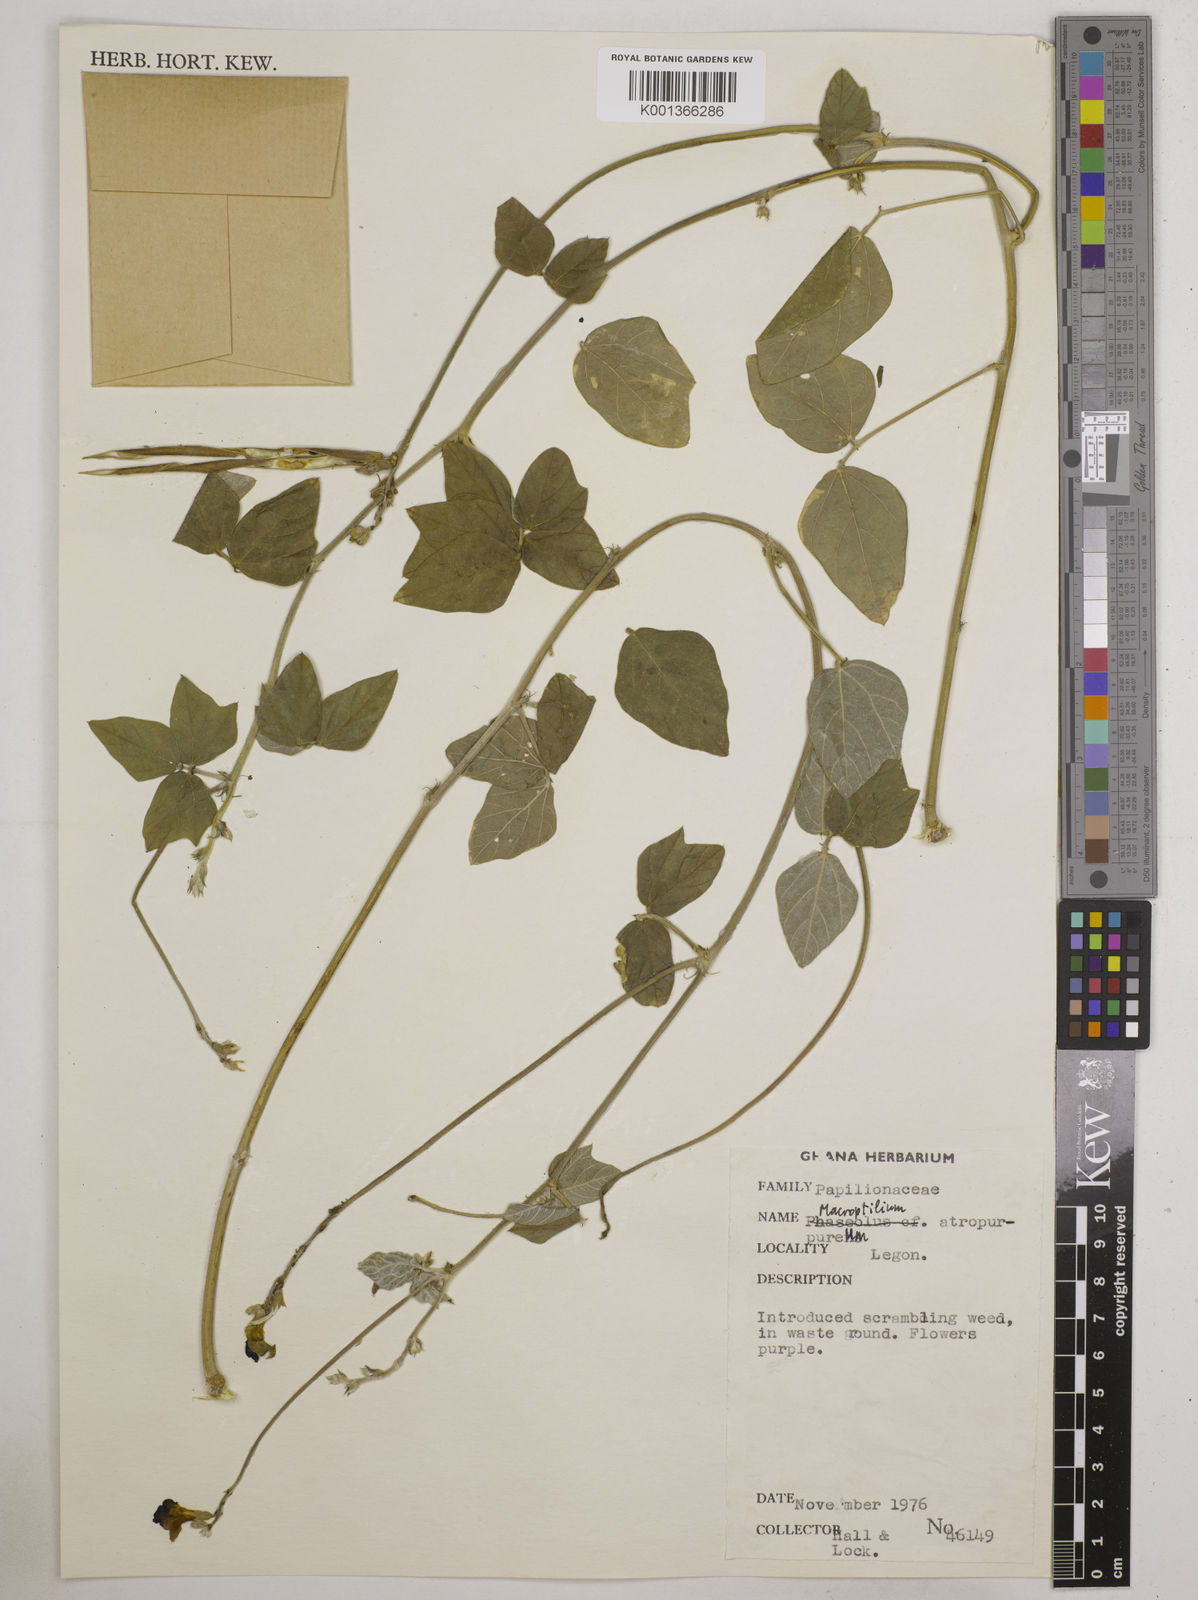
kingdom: Plantae
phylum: Tracheophyta
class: Magnoliopsida
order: Fabales
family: Fabaceae
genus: Macroptilium
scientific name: Macroptilium atropurpureum
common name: Purple bushbean
